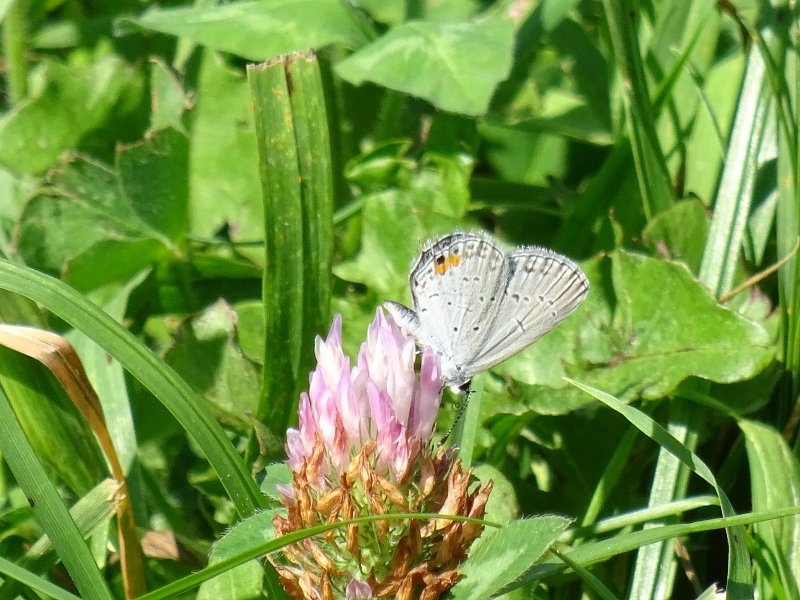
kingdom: Animalia
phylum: Arthropoda
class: Insecta
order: Lepidoptera
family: Lycaenidae
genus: Elkalyce
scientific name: Elkalyce comyntas
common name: Eastern Tailed-Blue
